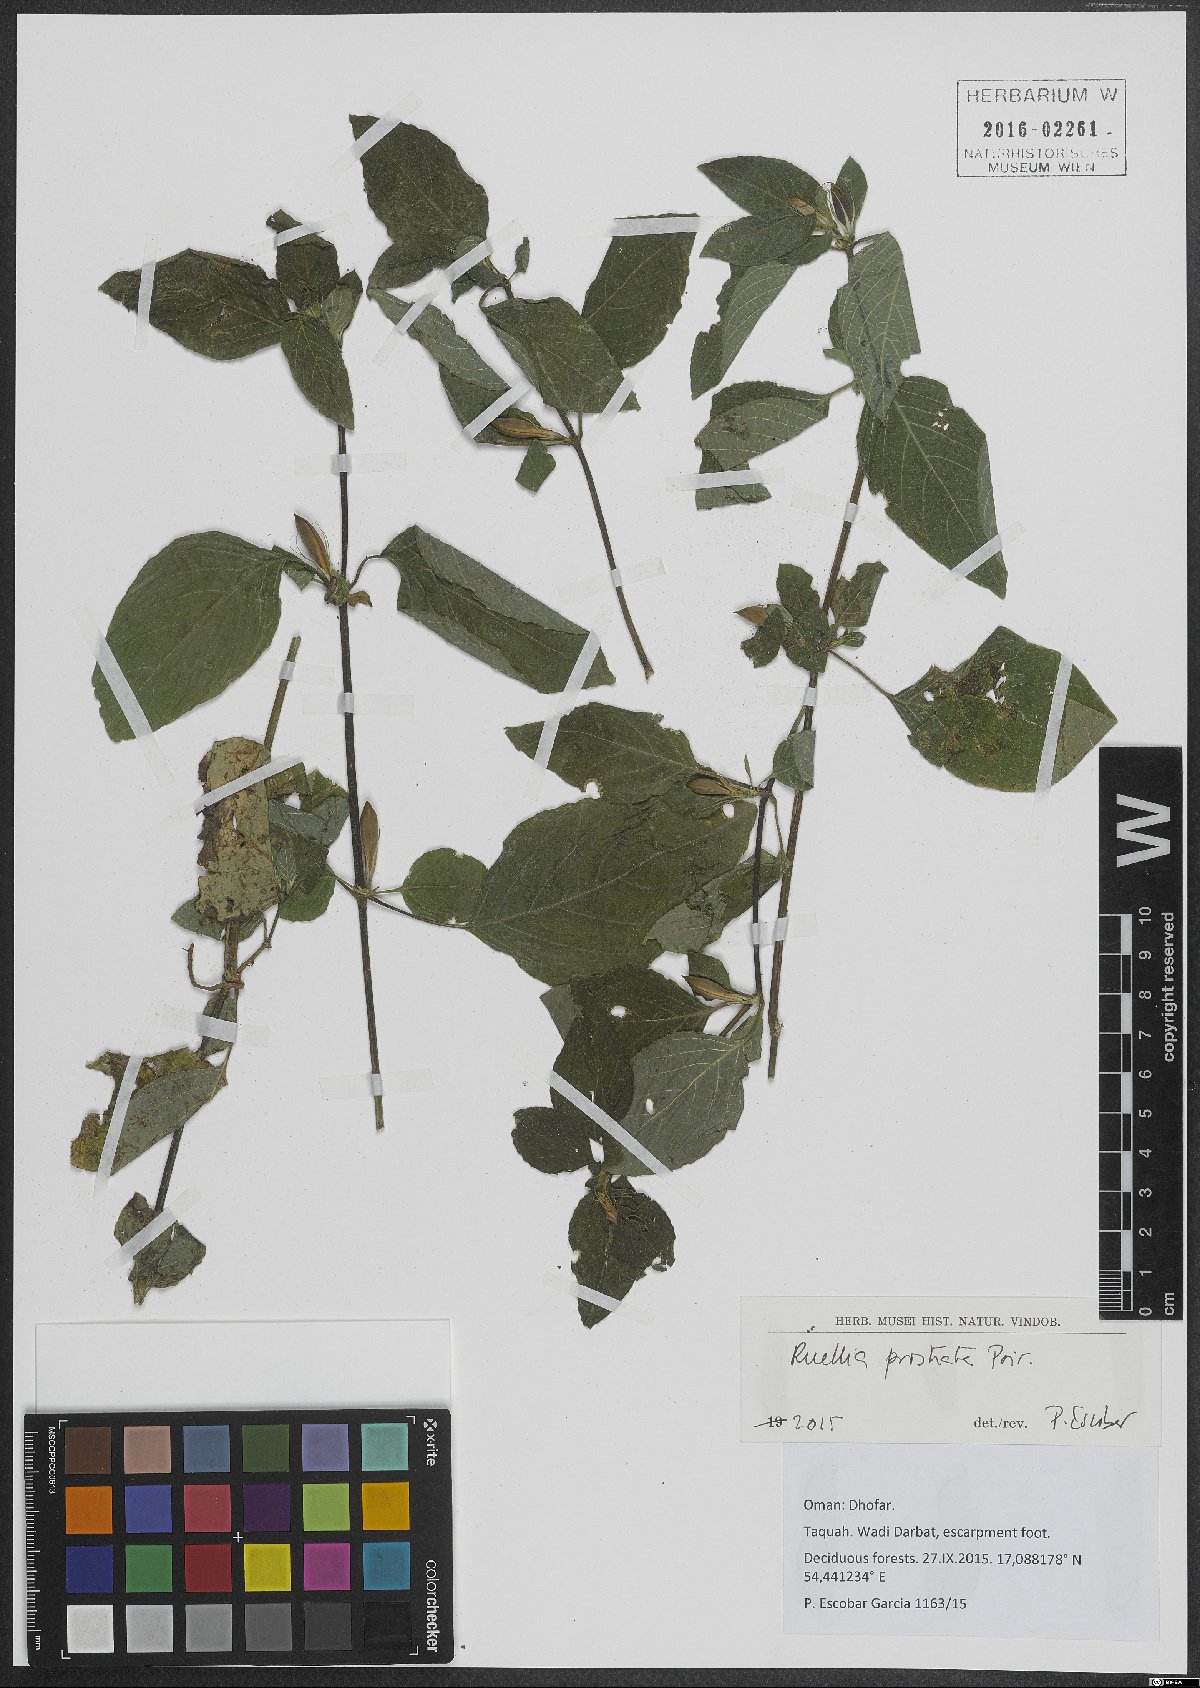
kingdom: Plantae
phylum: Tracheophyta
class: Magnoliopsida
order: Lamiales
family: Acanthaceae
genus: Ruellia
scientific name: Ruellia lactea
